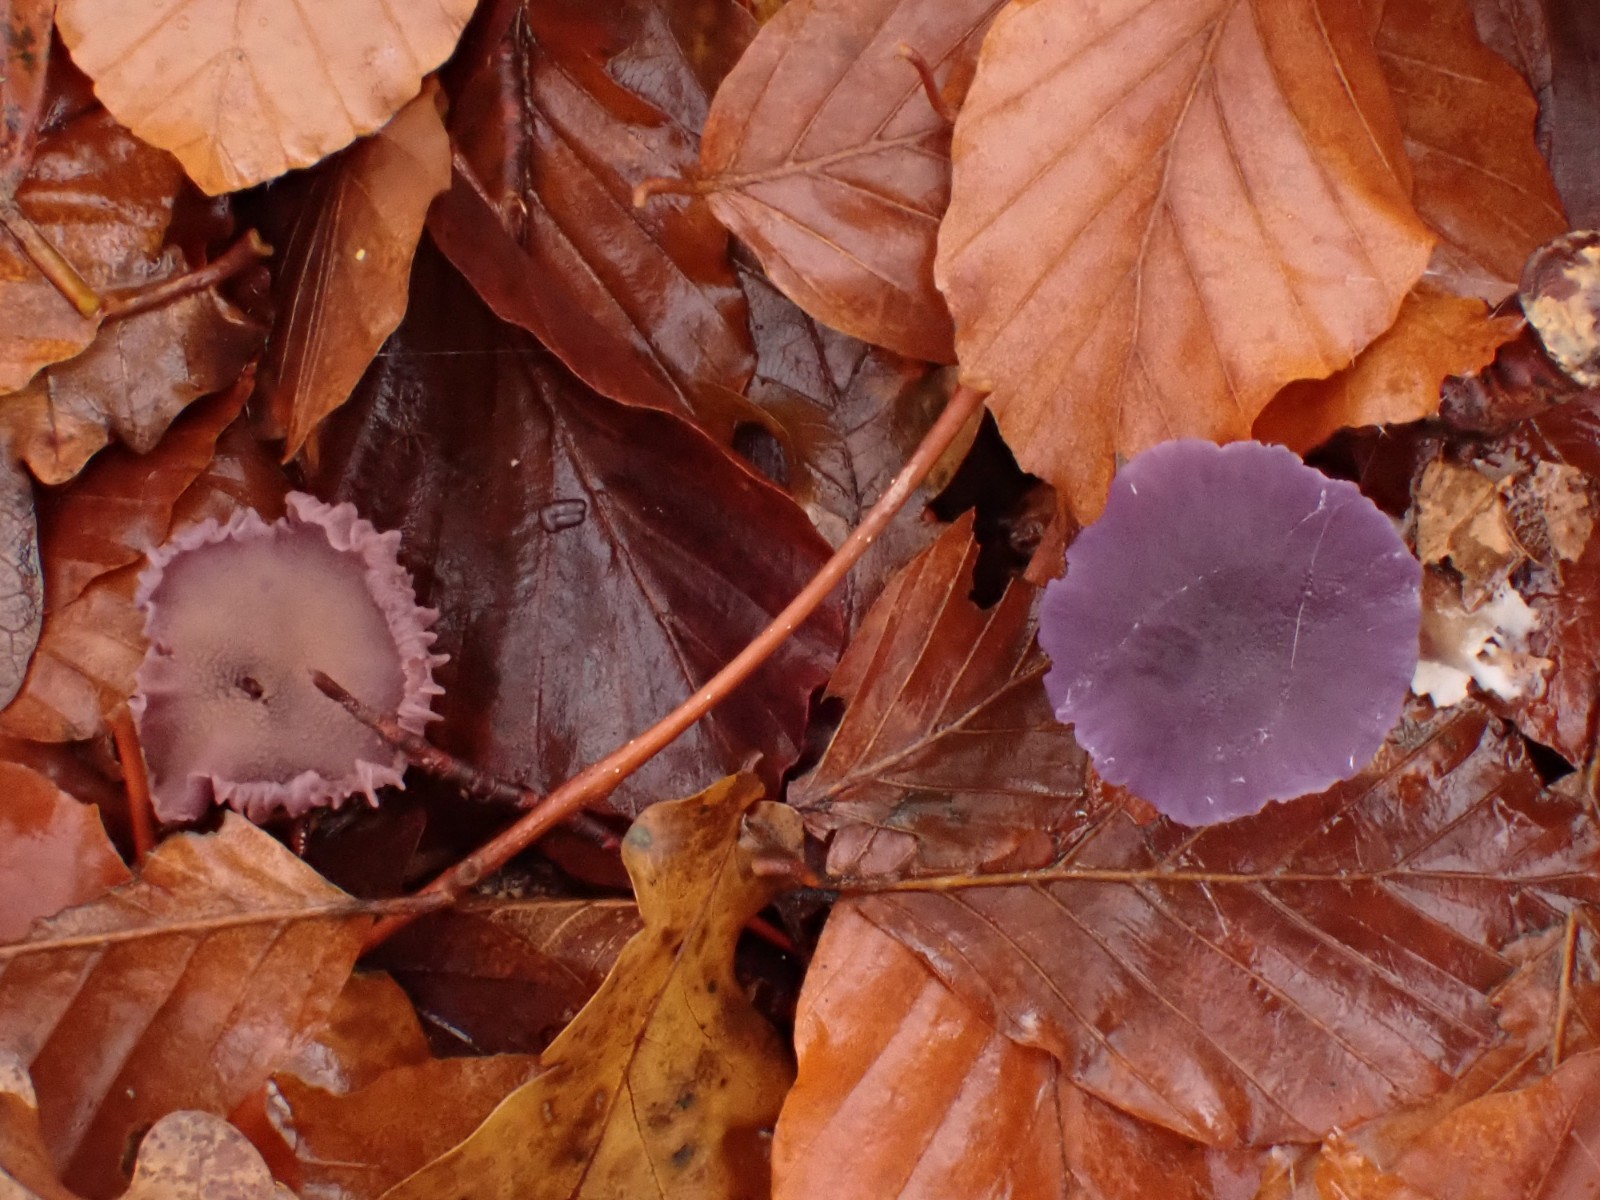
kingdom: Fungi
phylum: Basidiomycota
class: Agaricomycetes
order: Agaricales
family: Hydnangiaceae
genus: Laccaria
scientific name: Laccaria amethystina
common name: violet ametysthat
